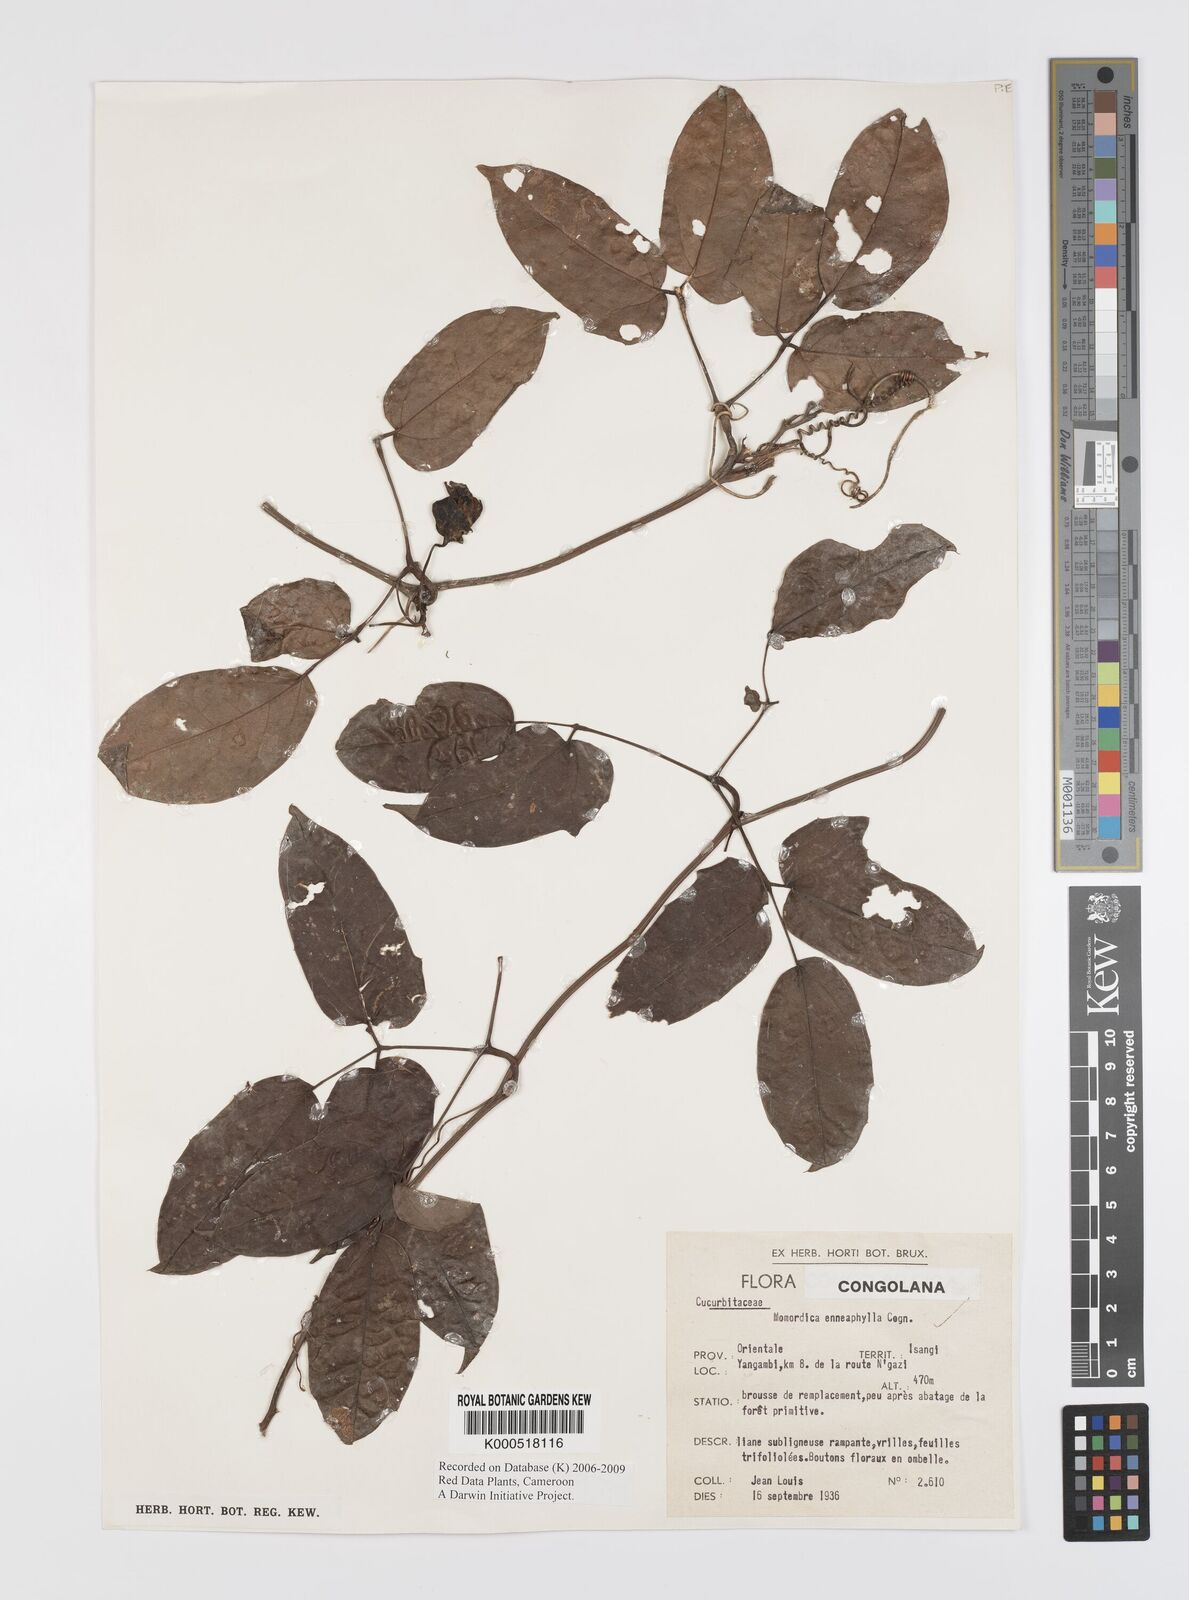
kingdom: Plantae
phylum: Tracheophyta
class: Magnoliopsida
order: Cucurbitales
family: Cucurbitaceae
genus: Momordica
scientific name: Momordica enneaphylla
